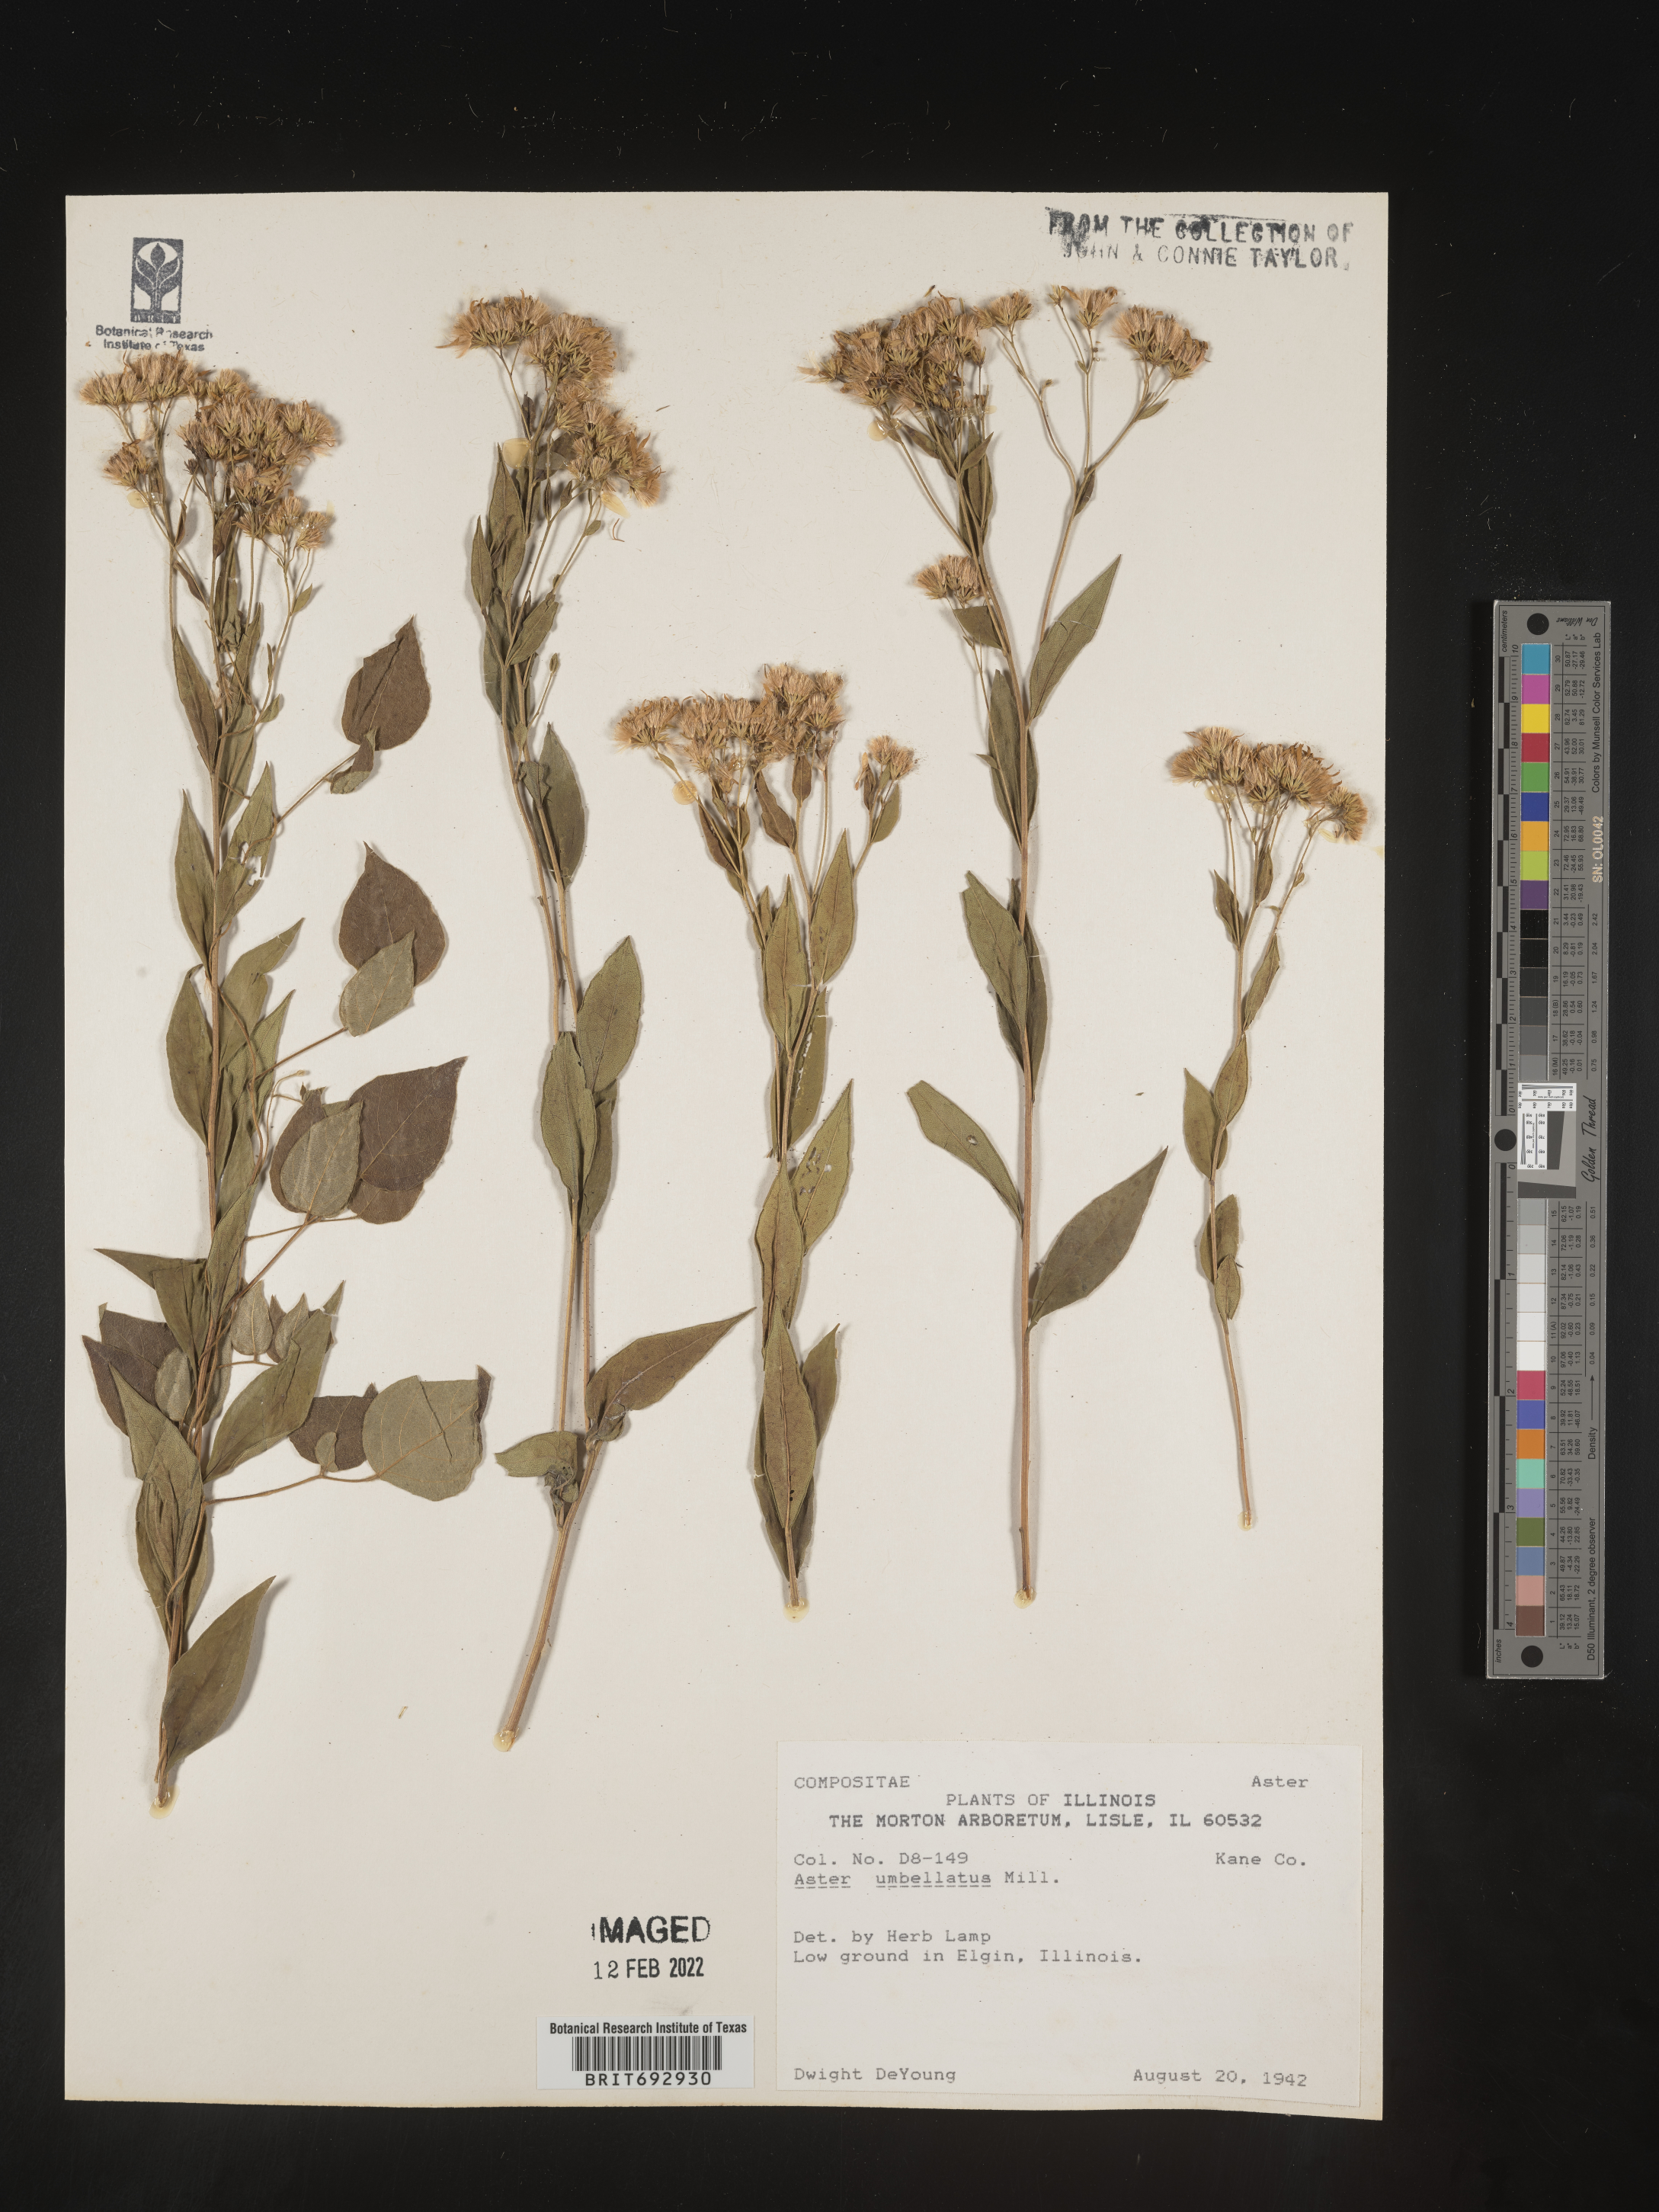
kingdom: Plantae
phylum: Tracheophyta
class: Magnoliopsida
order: Asterales
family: Asteraceae
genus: Doellingeria
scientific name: Doellingeria umbellata
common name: Flat-top white aster
